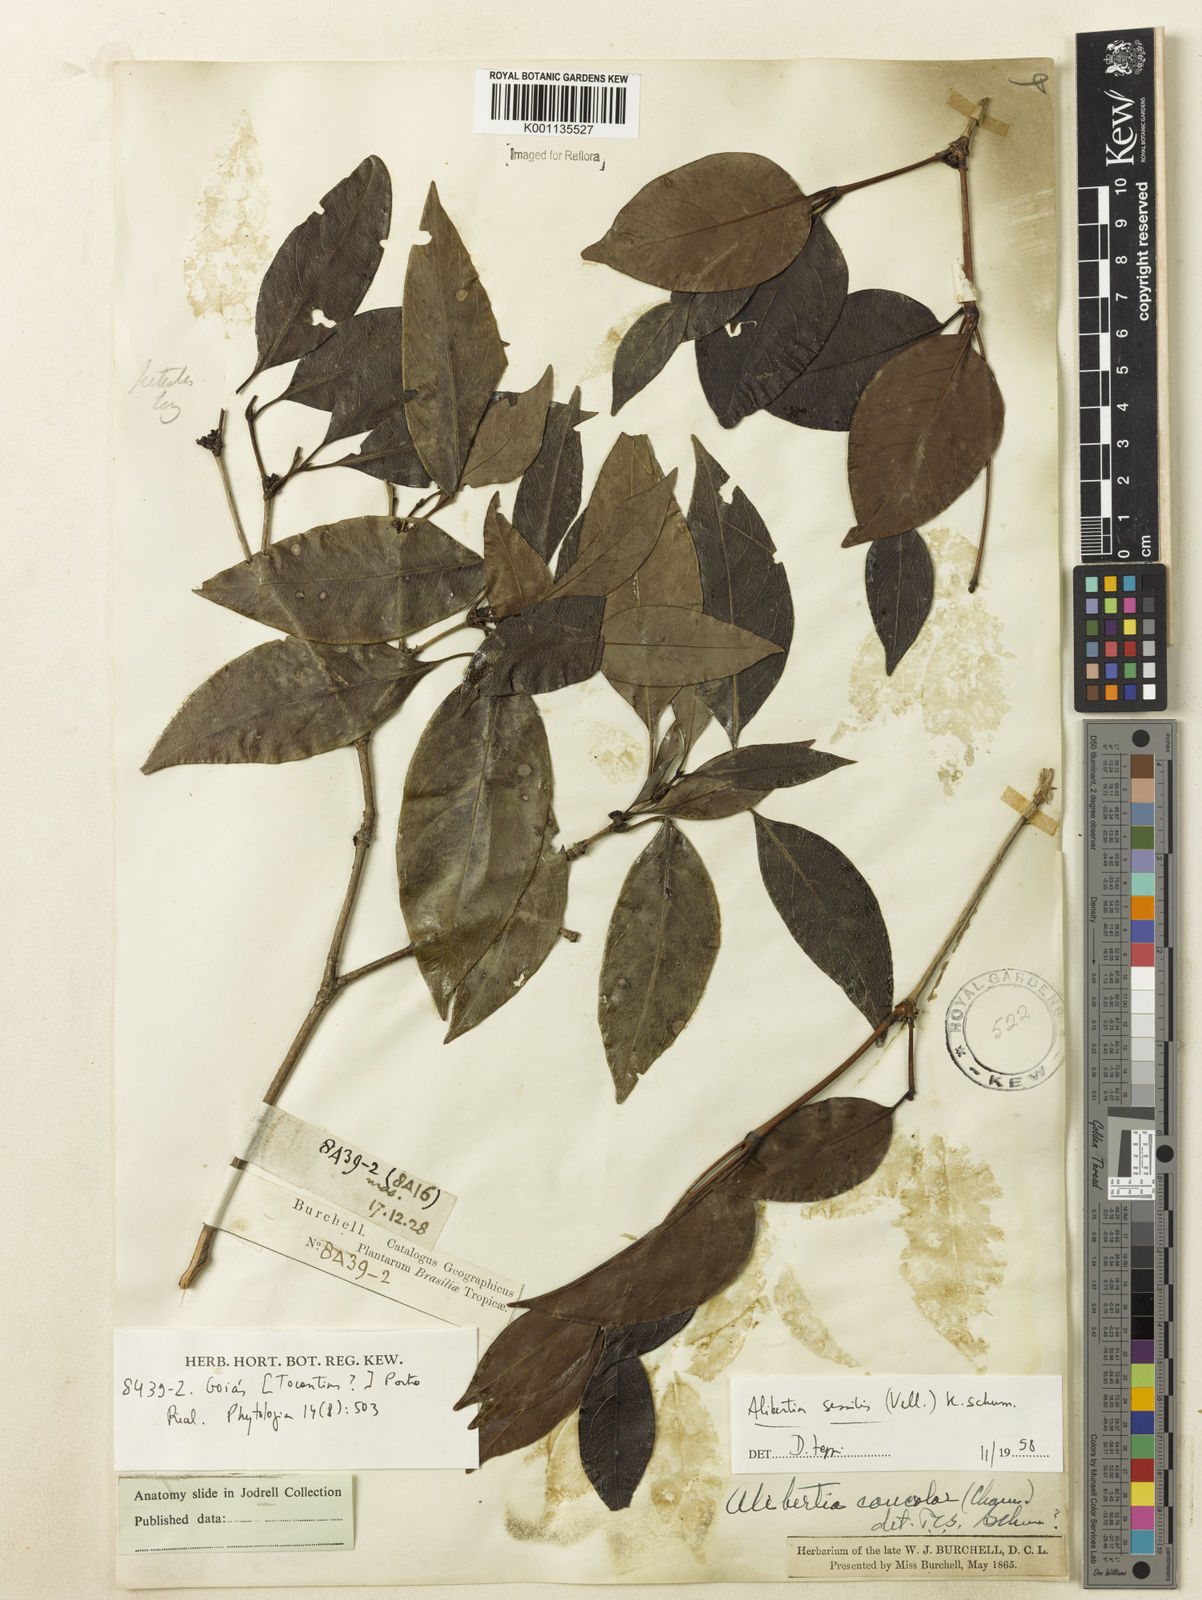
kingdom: Plantae
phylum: Tracheophyta
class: Magnoliopsida
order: Gentianales
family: Rubiaceae
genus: Cordiera
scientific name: Cordiera sessilis
